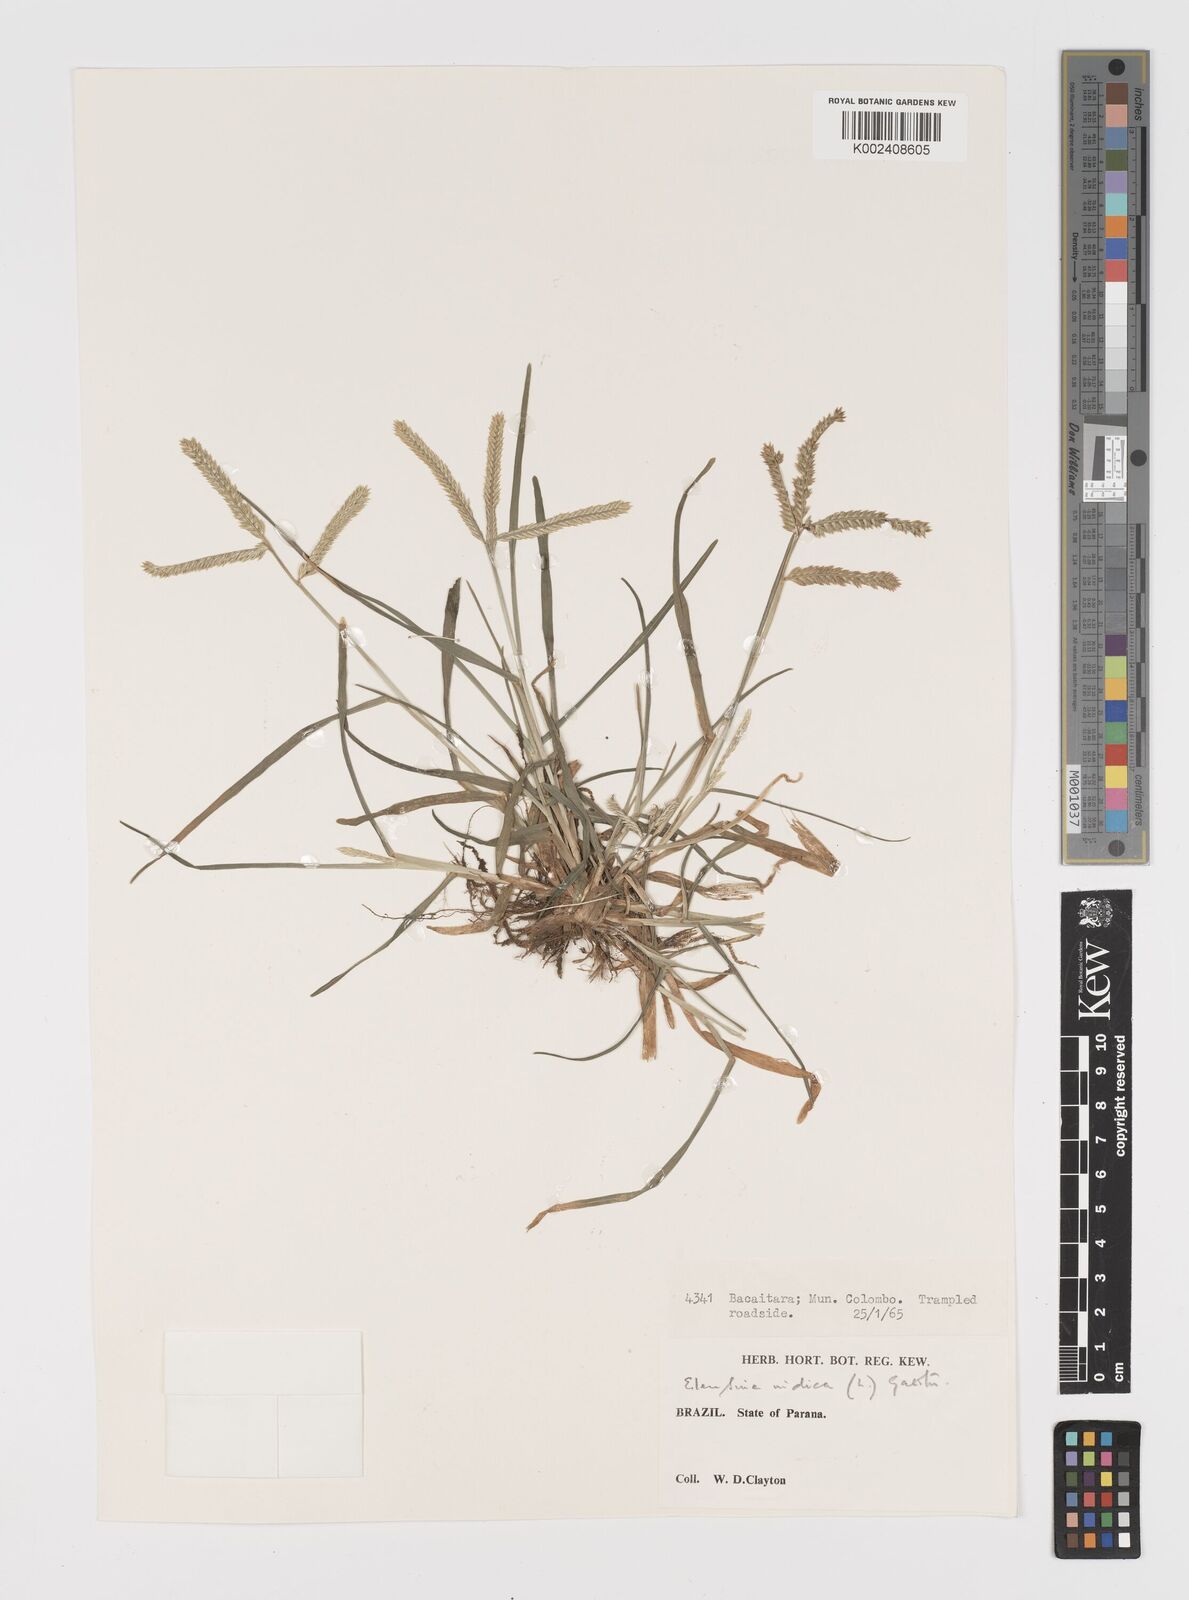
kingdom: Plantae
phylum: Tracheophyta
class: Liliopsida
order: Poales
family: Poaceae
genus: Eleusine
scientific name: Eleusine indica
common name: Yard-grass
